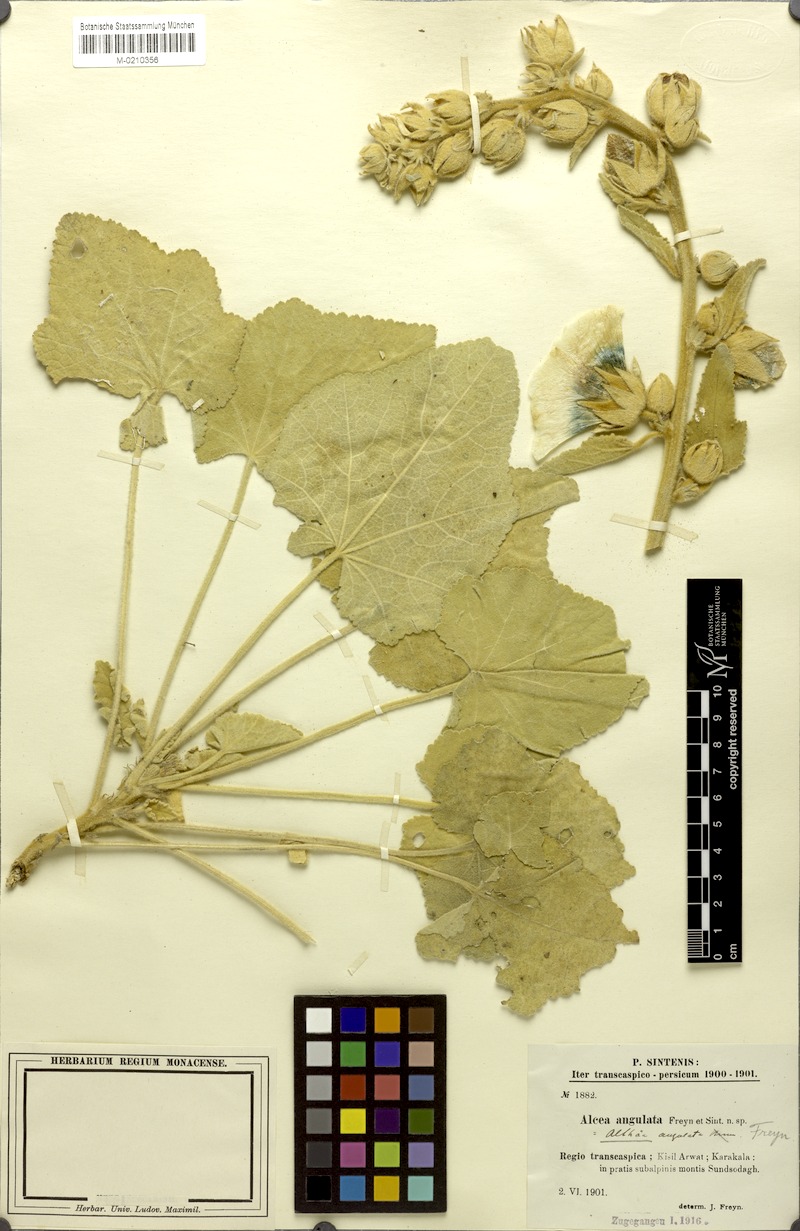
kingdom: Plantae
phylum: Tracheophyta
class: Magnoliopsida
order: Malvales
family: Malvaceae
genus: Alcea
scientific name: Alcea angulata
